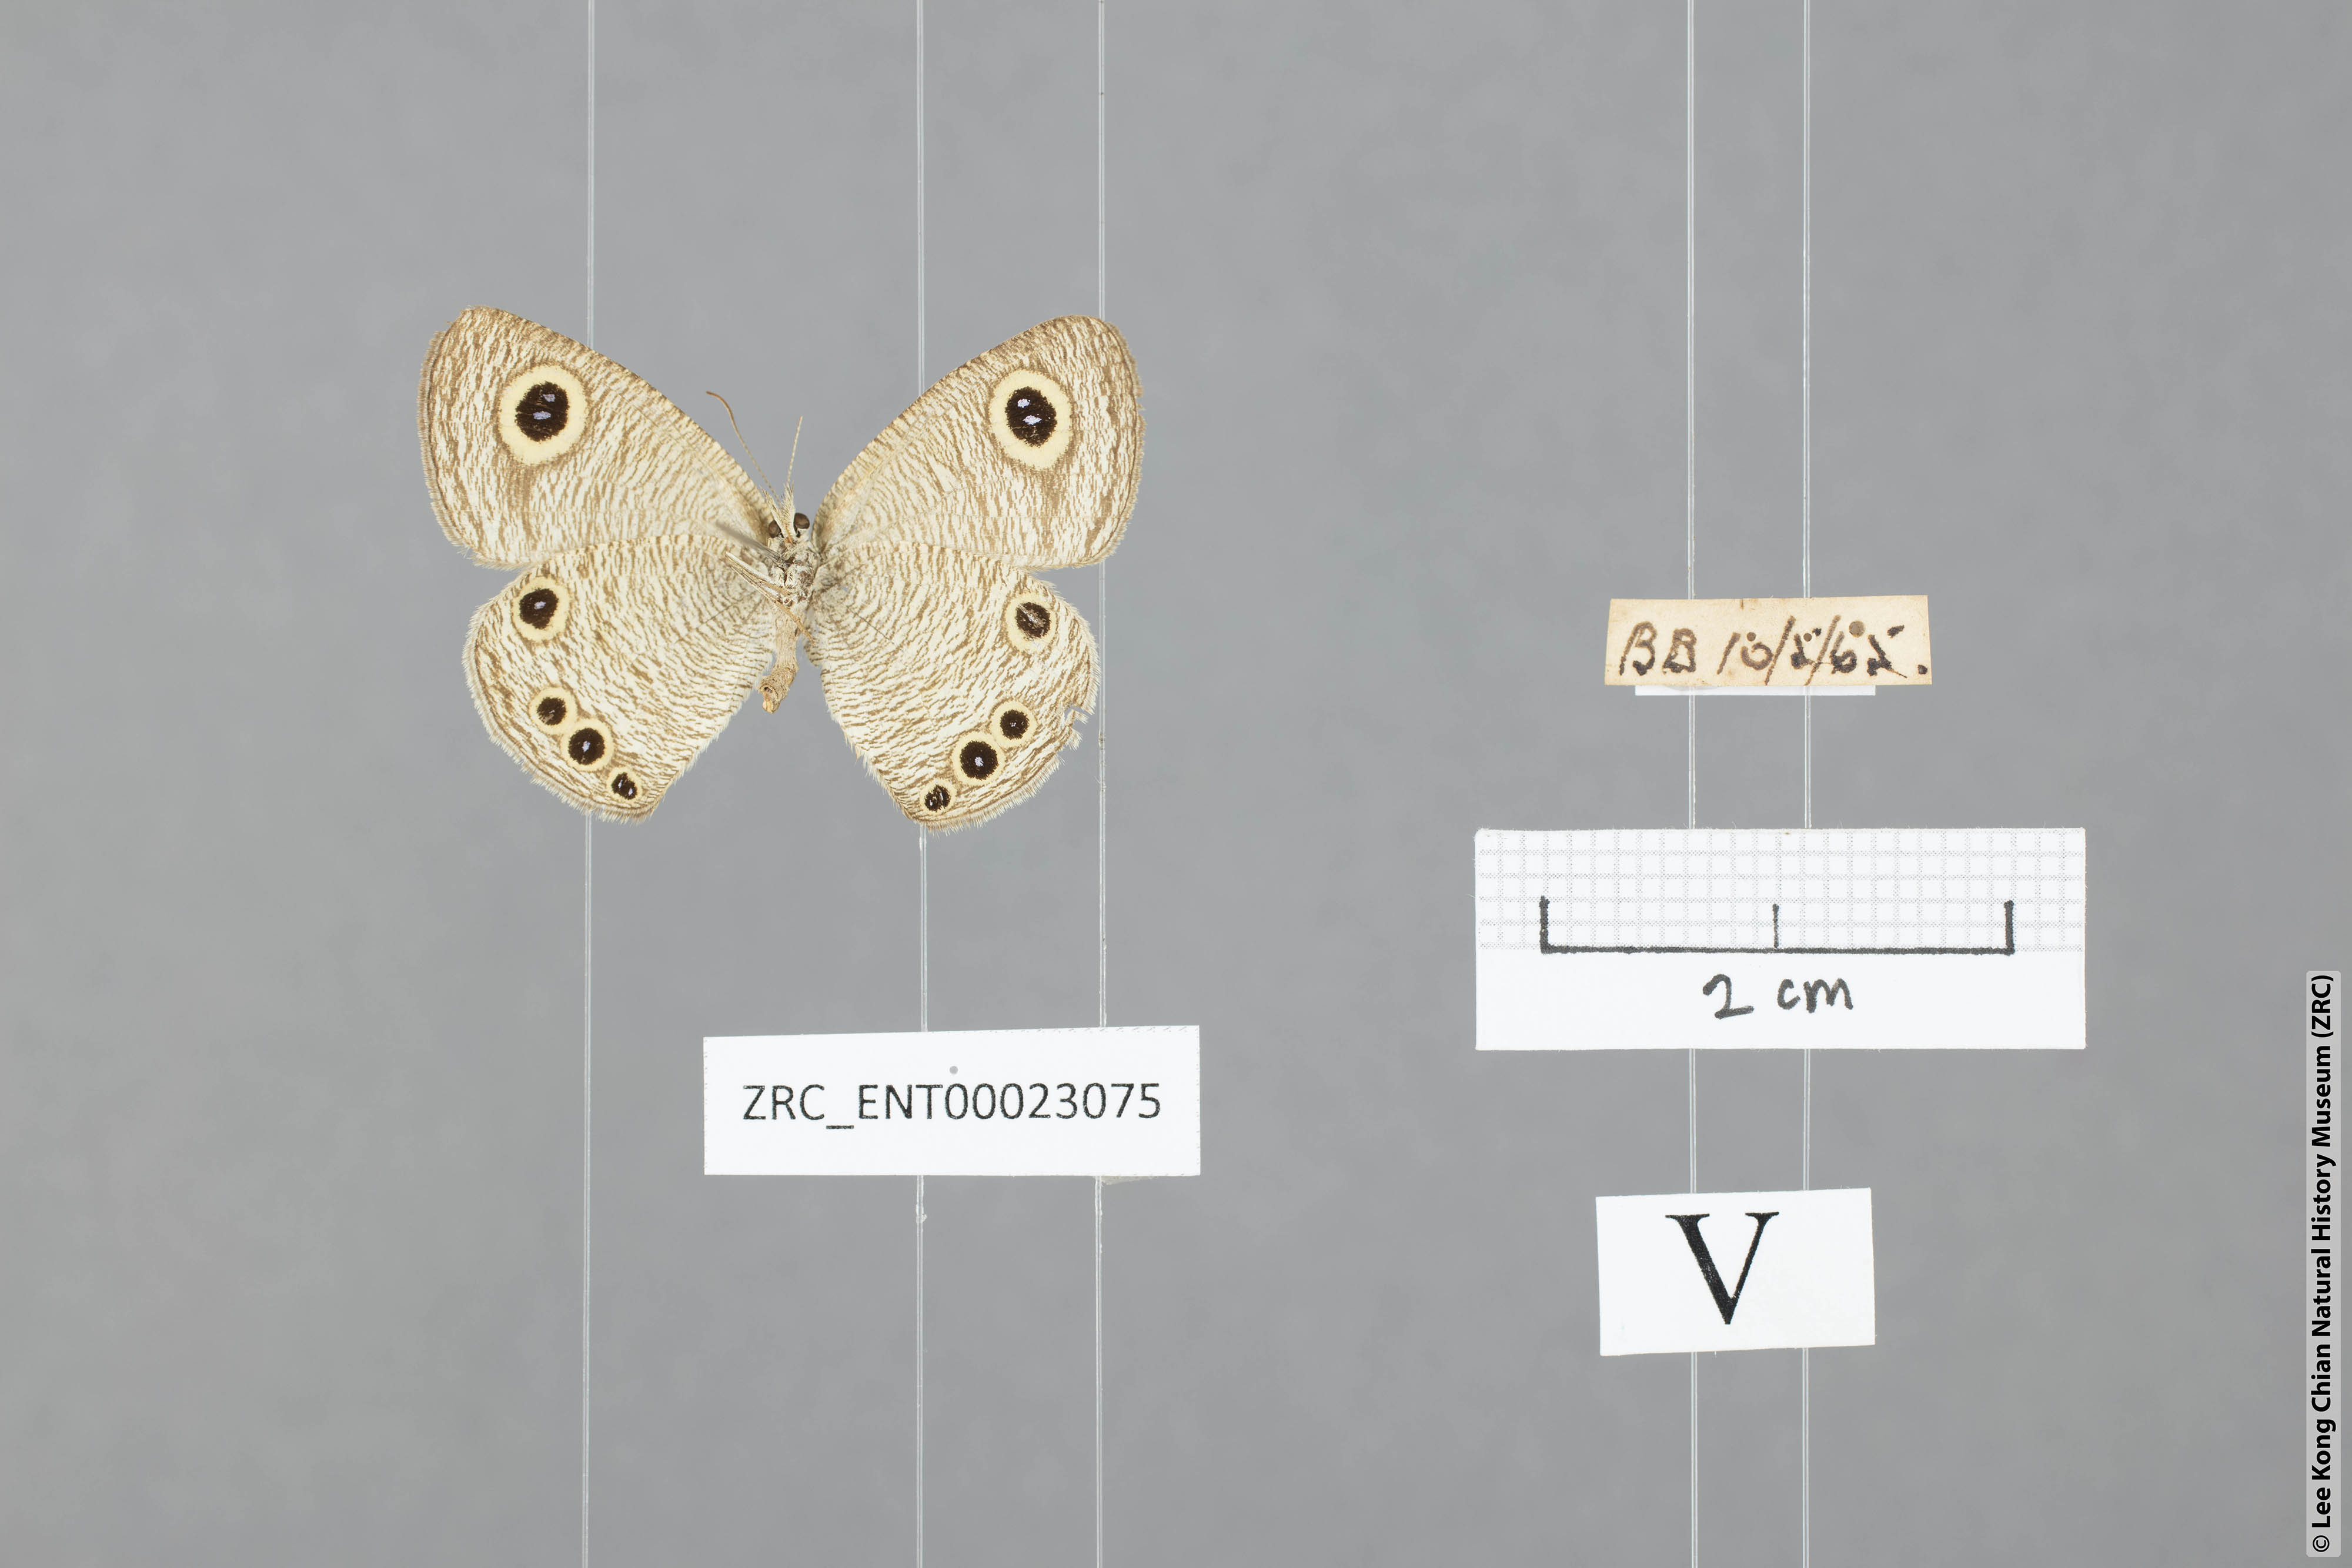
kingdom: Animalia
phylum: Arthropoda
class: Insecta
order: Lepidoptera
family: Nymphalidae
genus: Ypthima
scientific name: Ypthima huebneri
